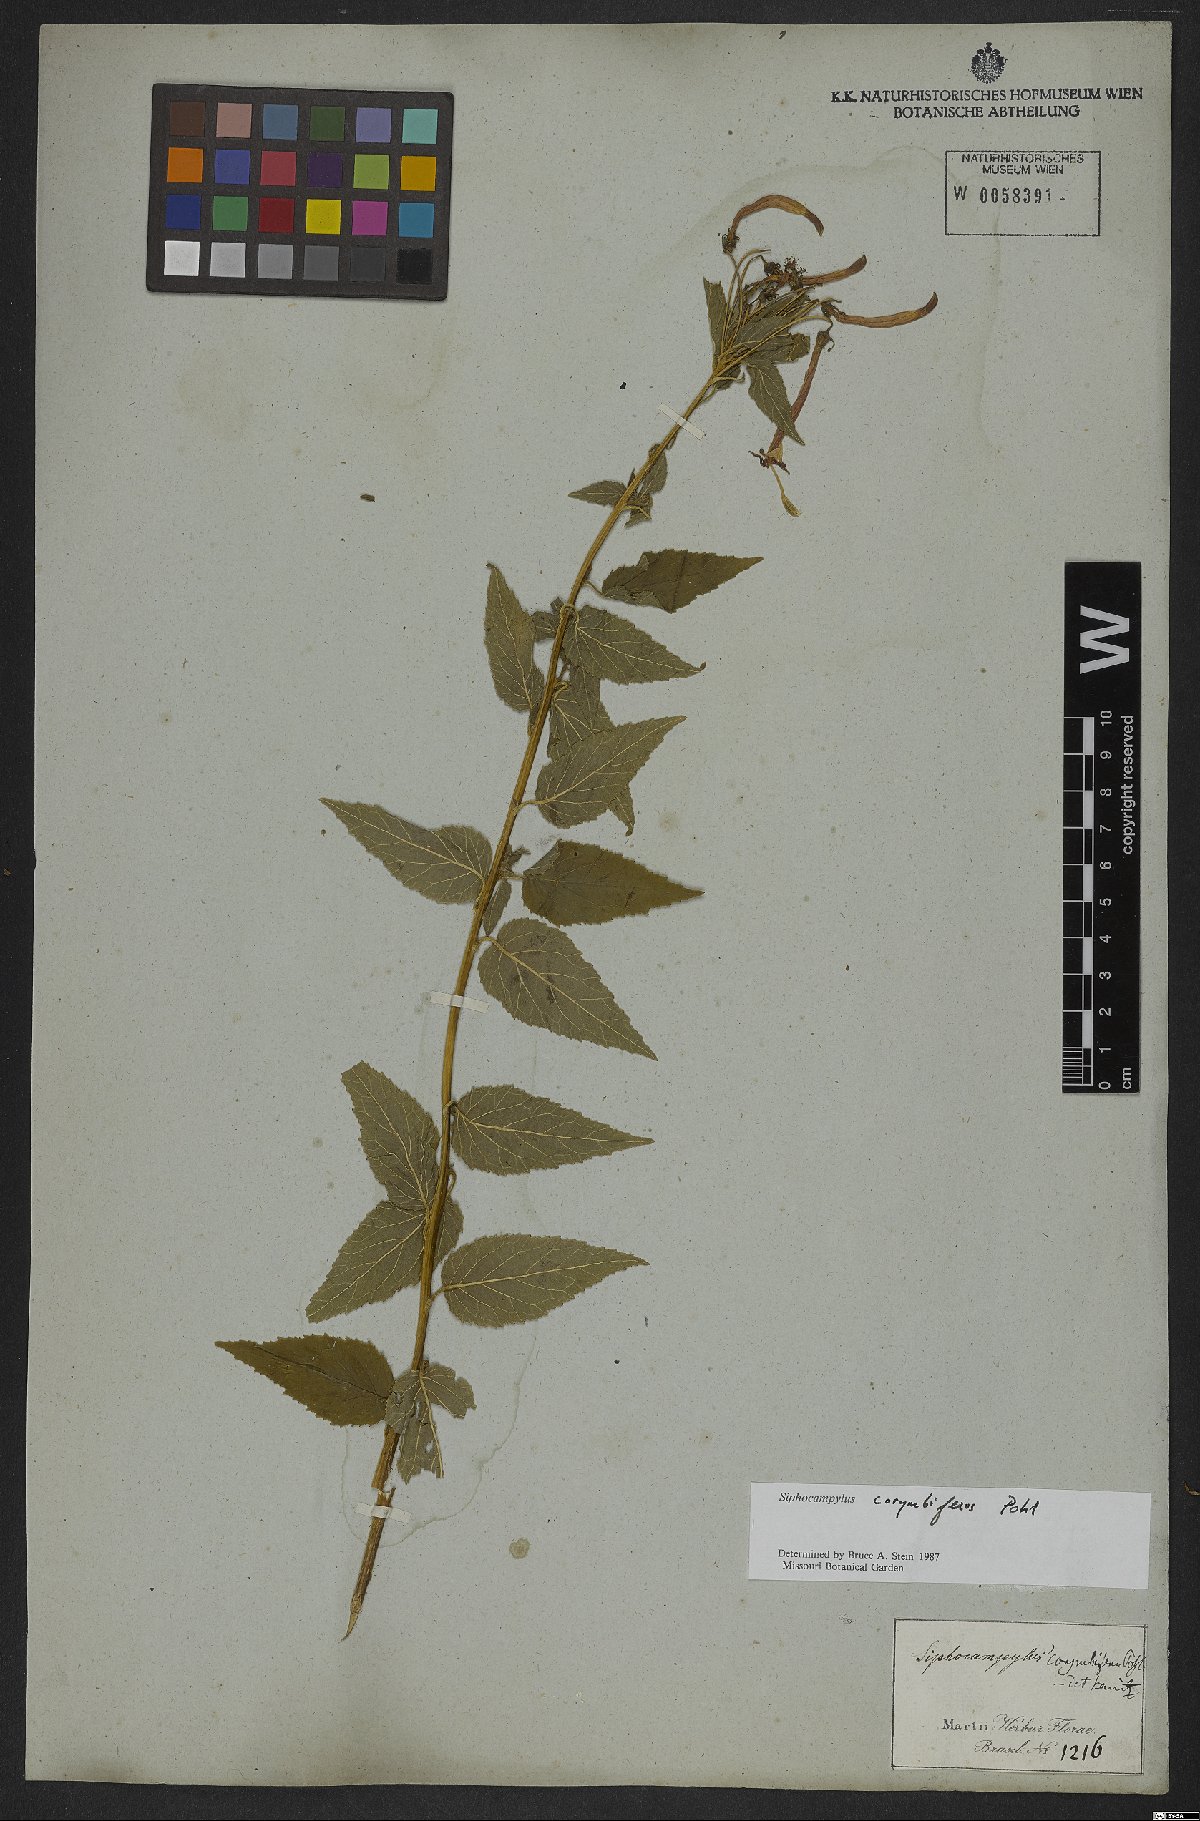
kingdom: Plantae
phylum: Tracheophyta
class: Magnoliopsida
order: Asterales
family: Campanulaceae
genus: Siphocampylus
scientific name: Siphocampylus corymbiferus
